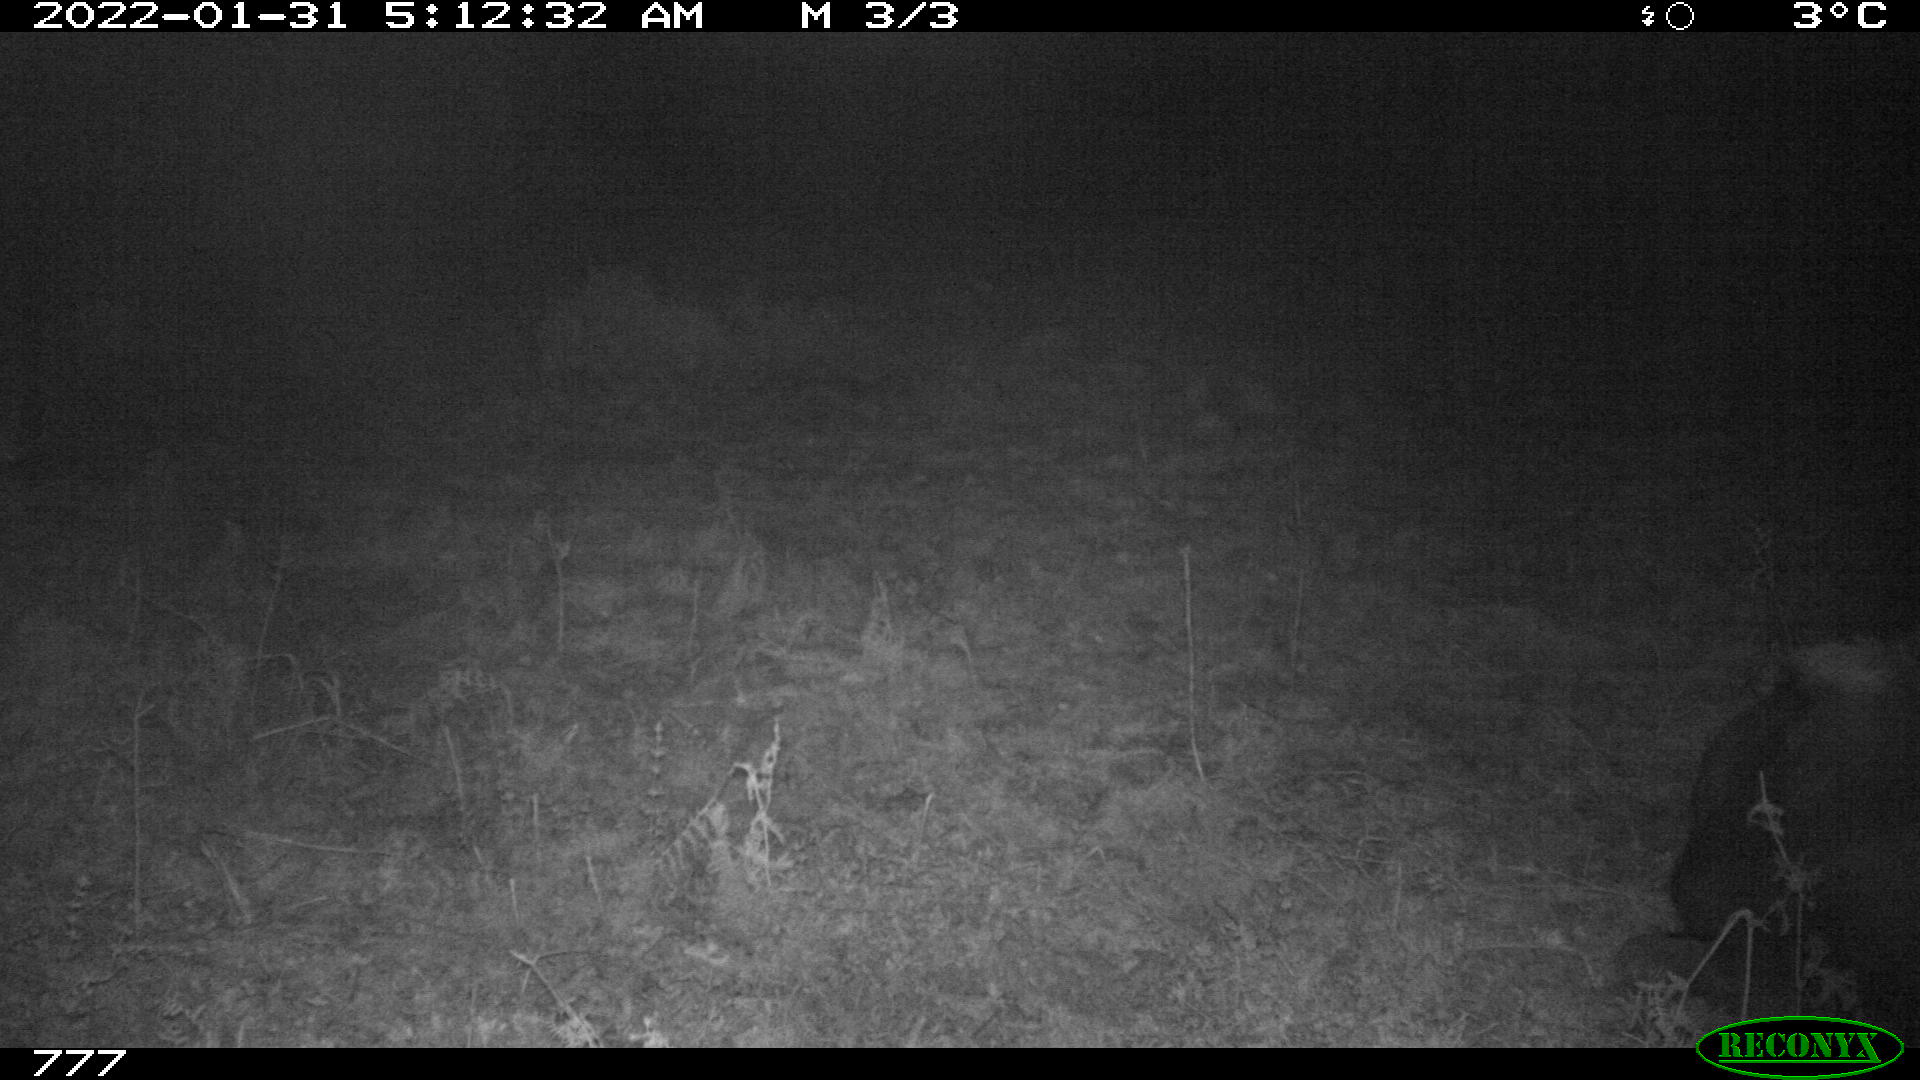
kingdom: Animalia
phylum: Chordata
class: Mammalia
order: Artiodactyla
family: Bovidae
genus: Bos
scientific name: Bos taurus
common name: Domesticated cattle
